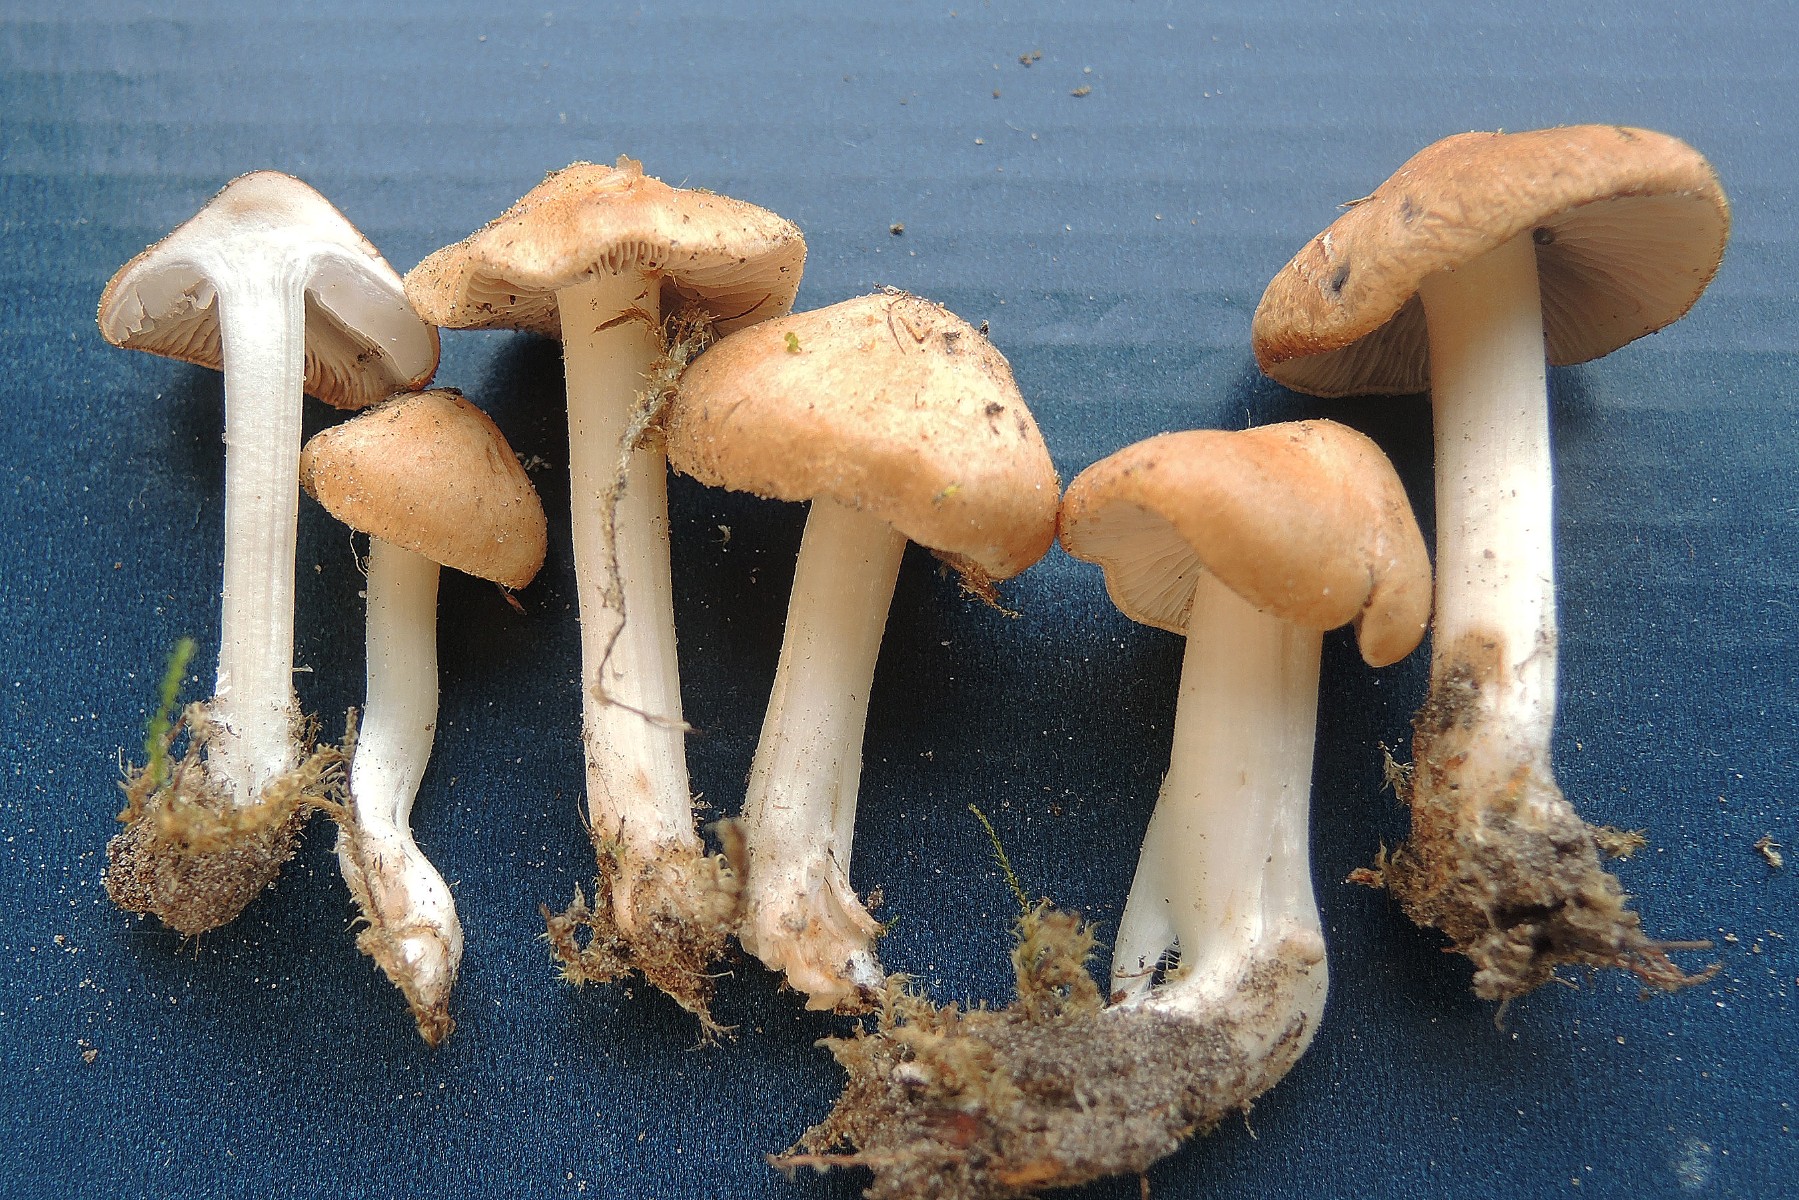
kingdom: Fungi
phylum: Basidiomycota
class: Agaricomycetes
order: Agaricales
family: Inocybaceae
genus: Inocybe
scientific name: Inocybe
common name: trævlhat
